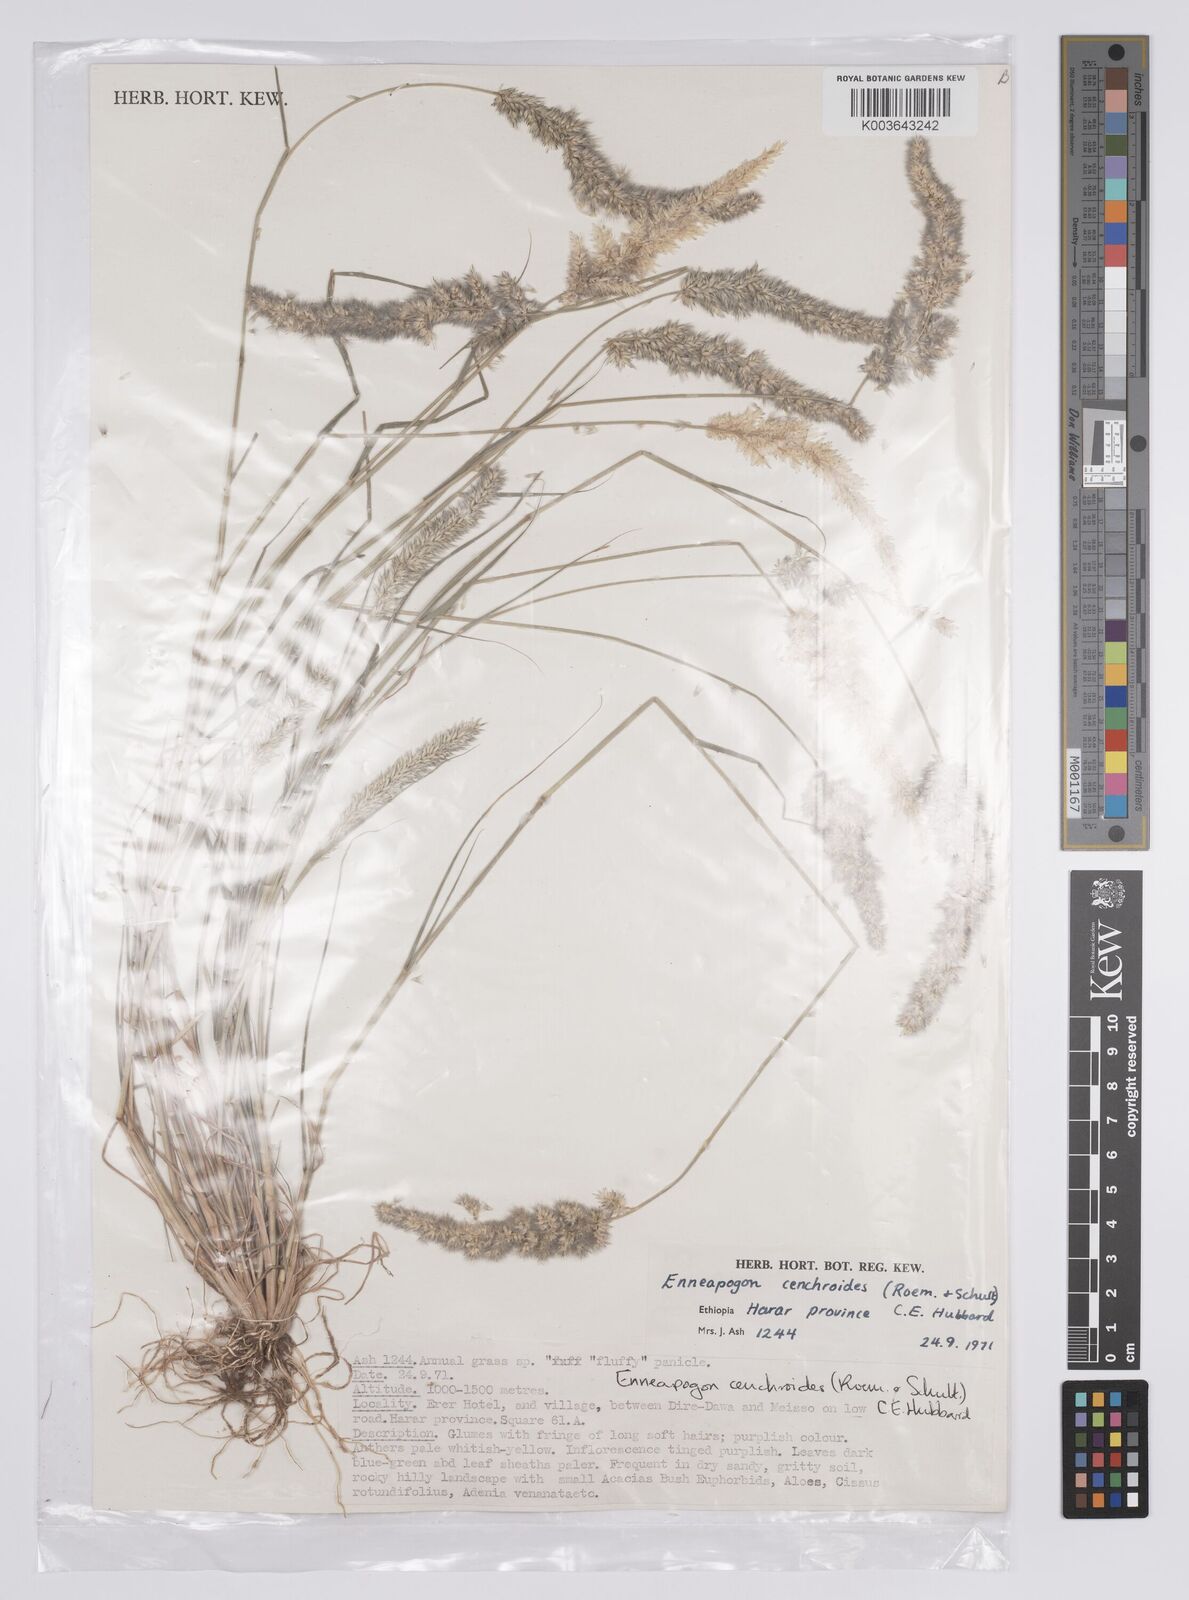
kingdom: Plantae
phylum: Tracheophyta
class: Liliopsida
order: Poales
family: Poaceae
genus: Enneapogon
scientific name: Enneapogon cenchroides
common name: Soft feather pappusgrass
